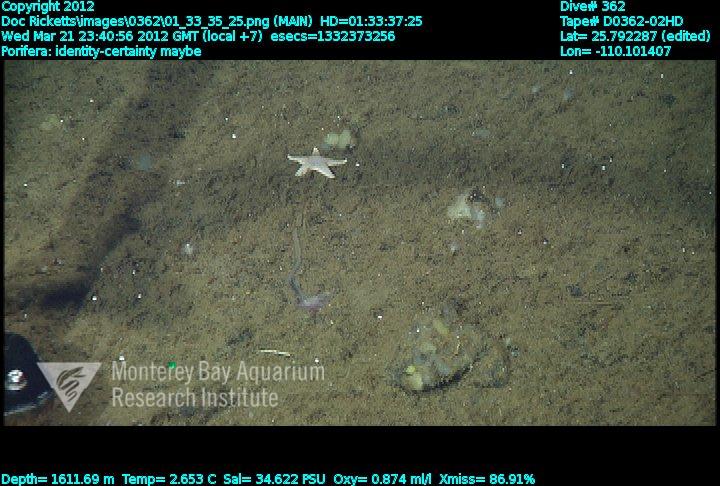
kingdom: Animalia
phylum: Porifera
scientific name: Porifera
